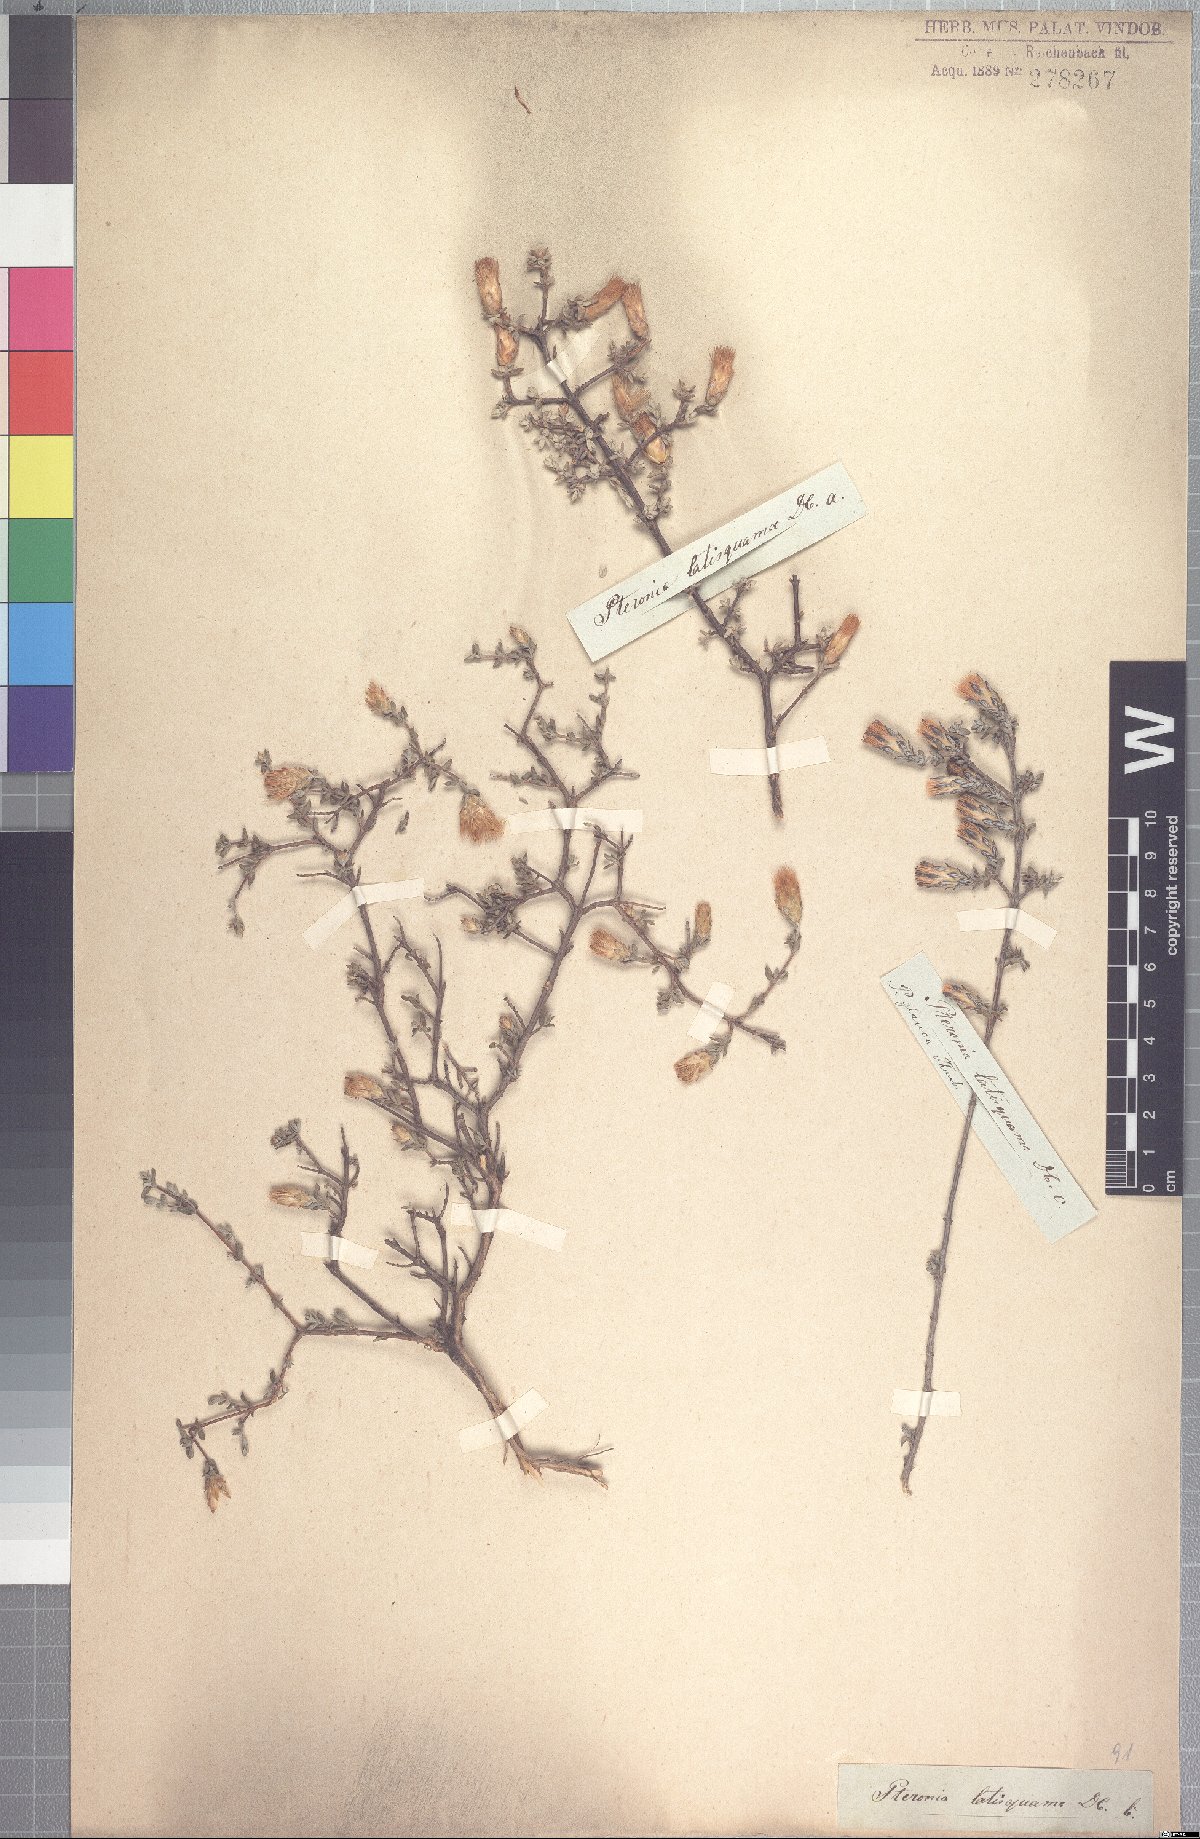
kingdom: Plantae
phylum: Tracheophyta
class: Magnoliopsida
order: Asterales
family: Asteraceae
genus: Pteronia
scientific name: Pteronia glauca
